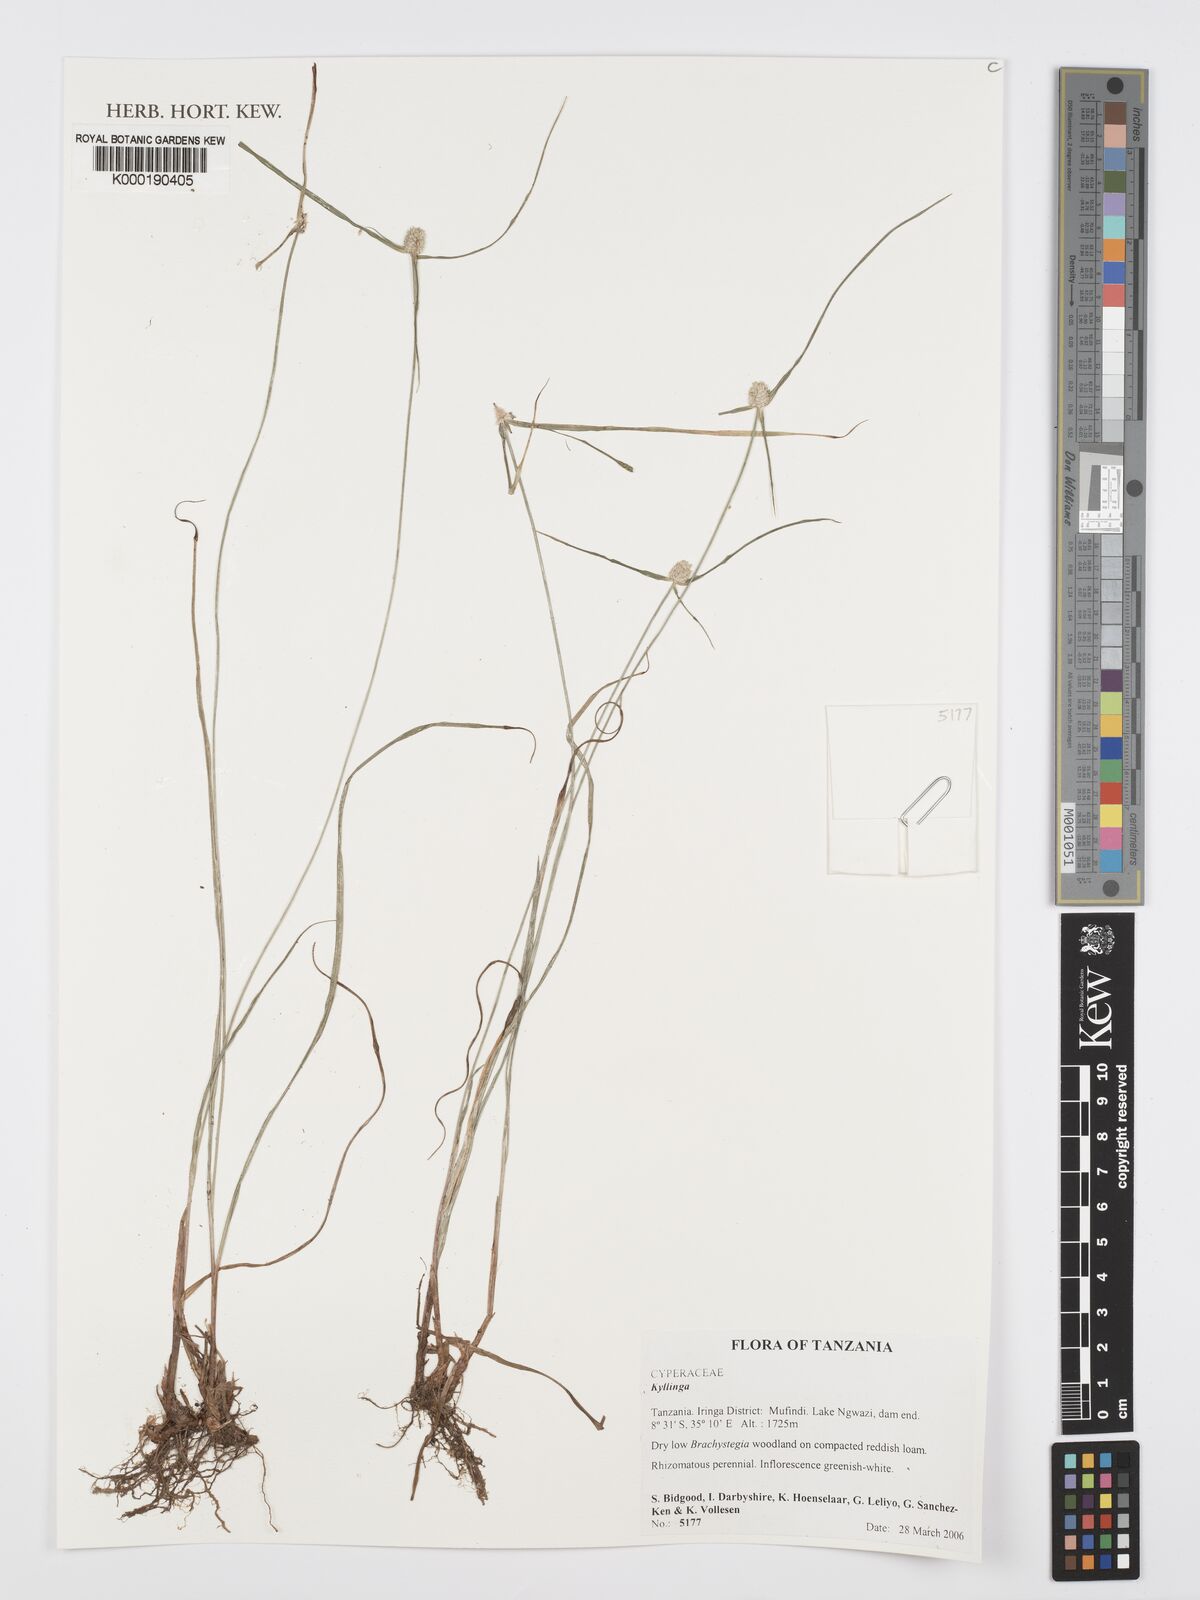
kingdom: Plantae
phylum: Tracheophyta
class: Liliopsida
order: Poales
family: Cyperaceae
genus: Cyperus
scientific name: Cyperus
